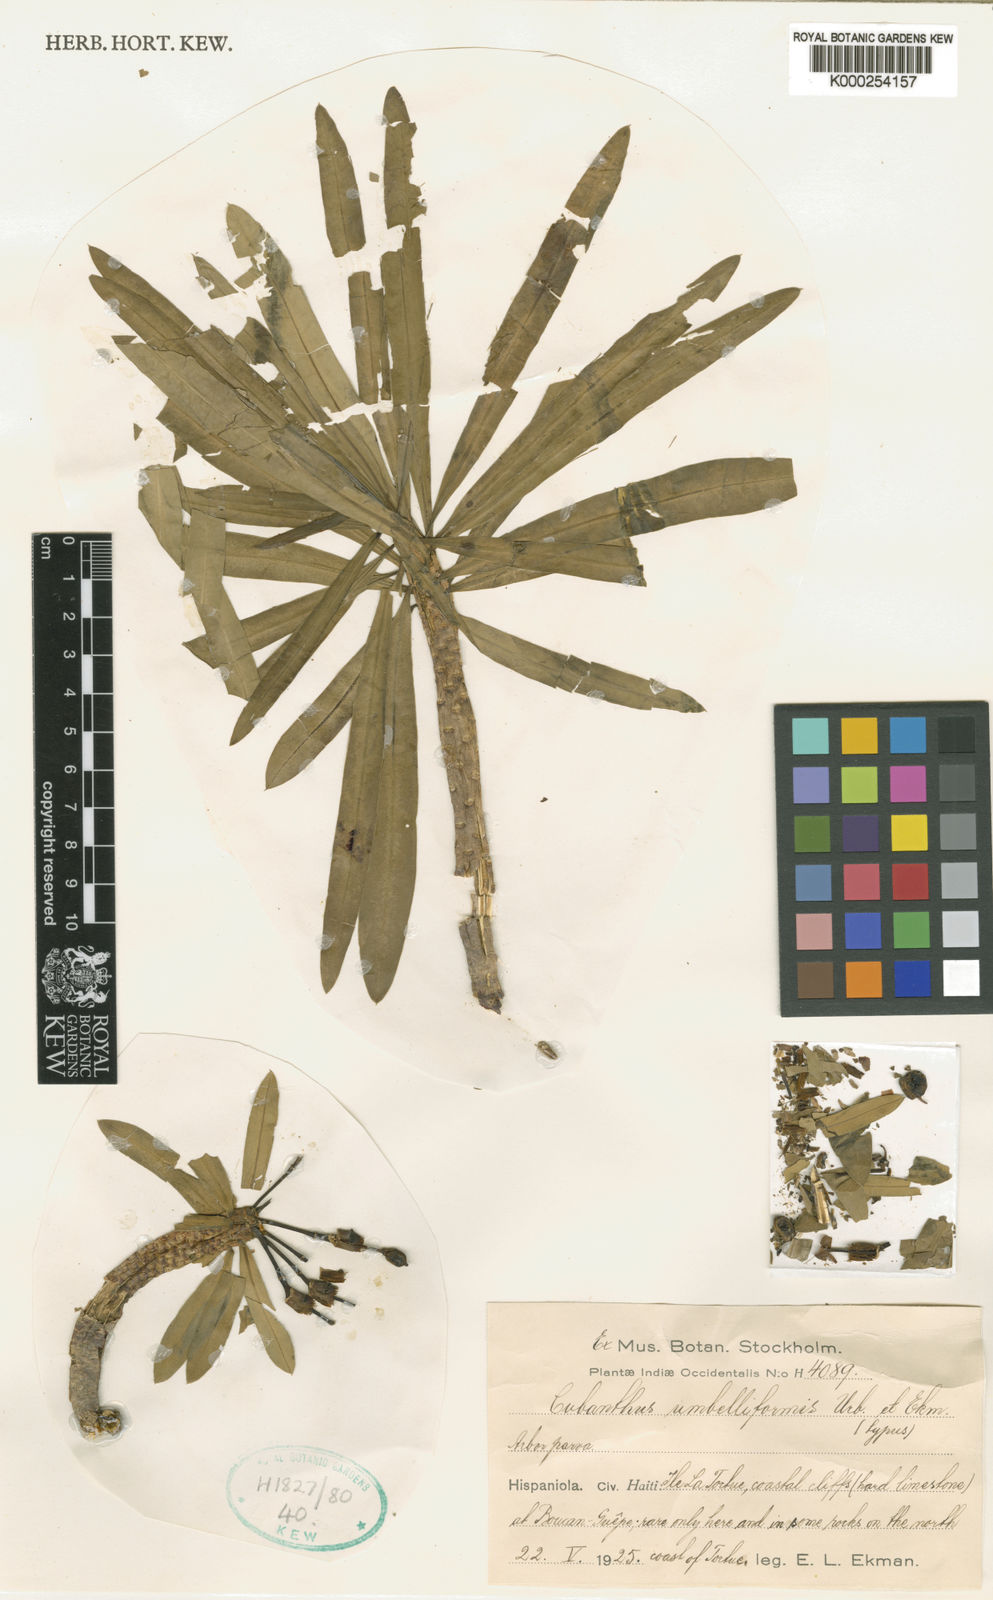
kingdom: Plantae
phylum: Tracheophyta
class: Magnoliopsida
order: Malpighiales
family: Euphorbiaceae
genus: Euphorbia
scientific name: Euphorbia umbelliformis
